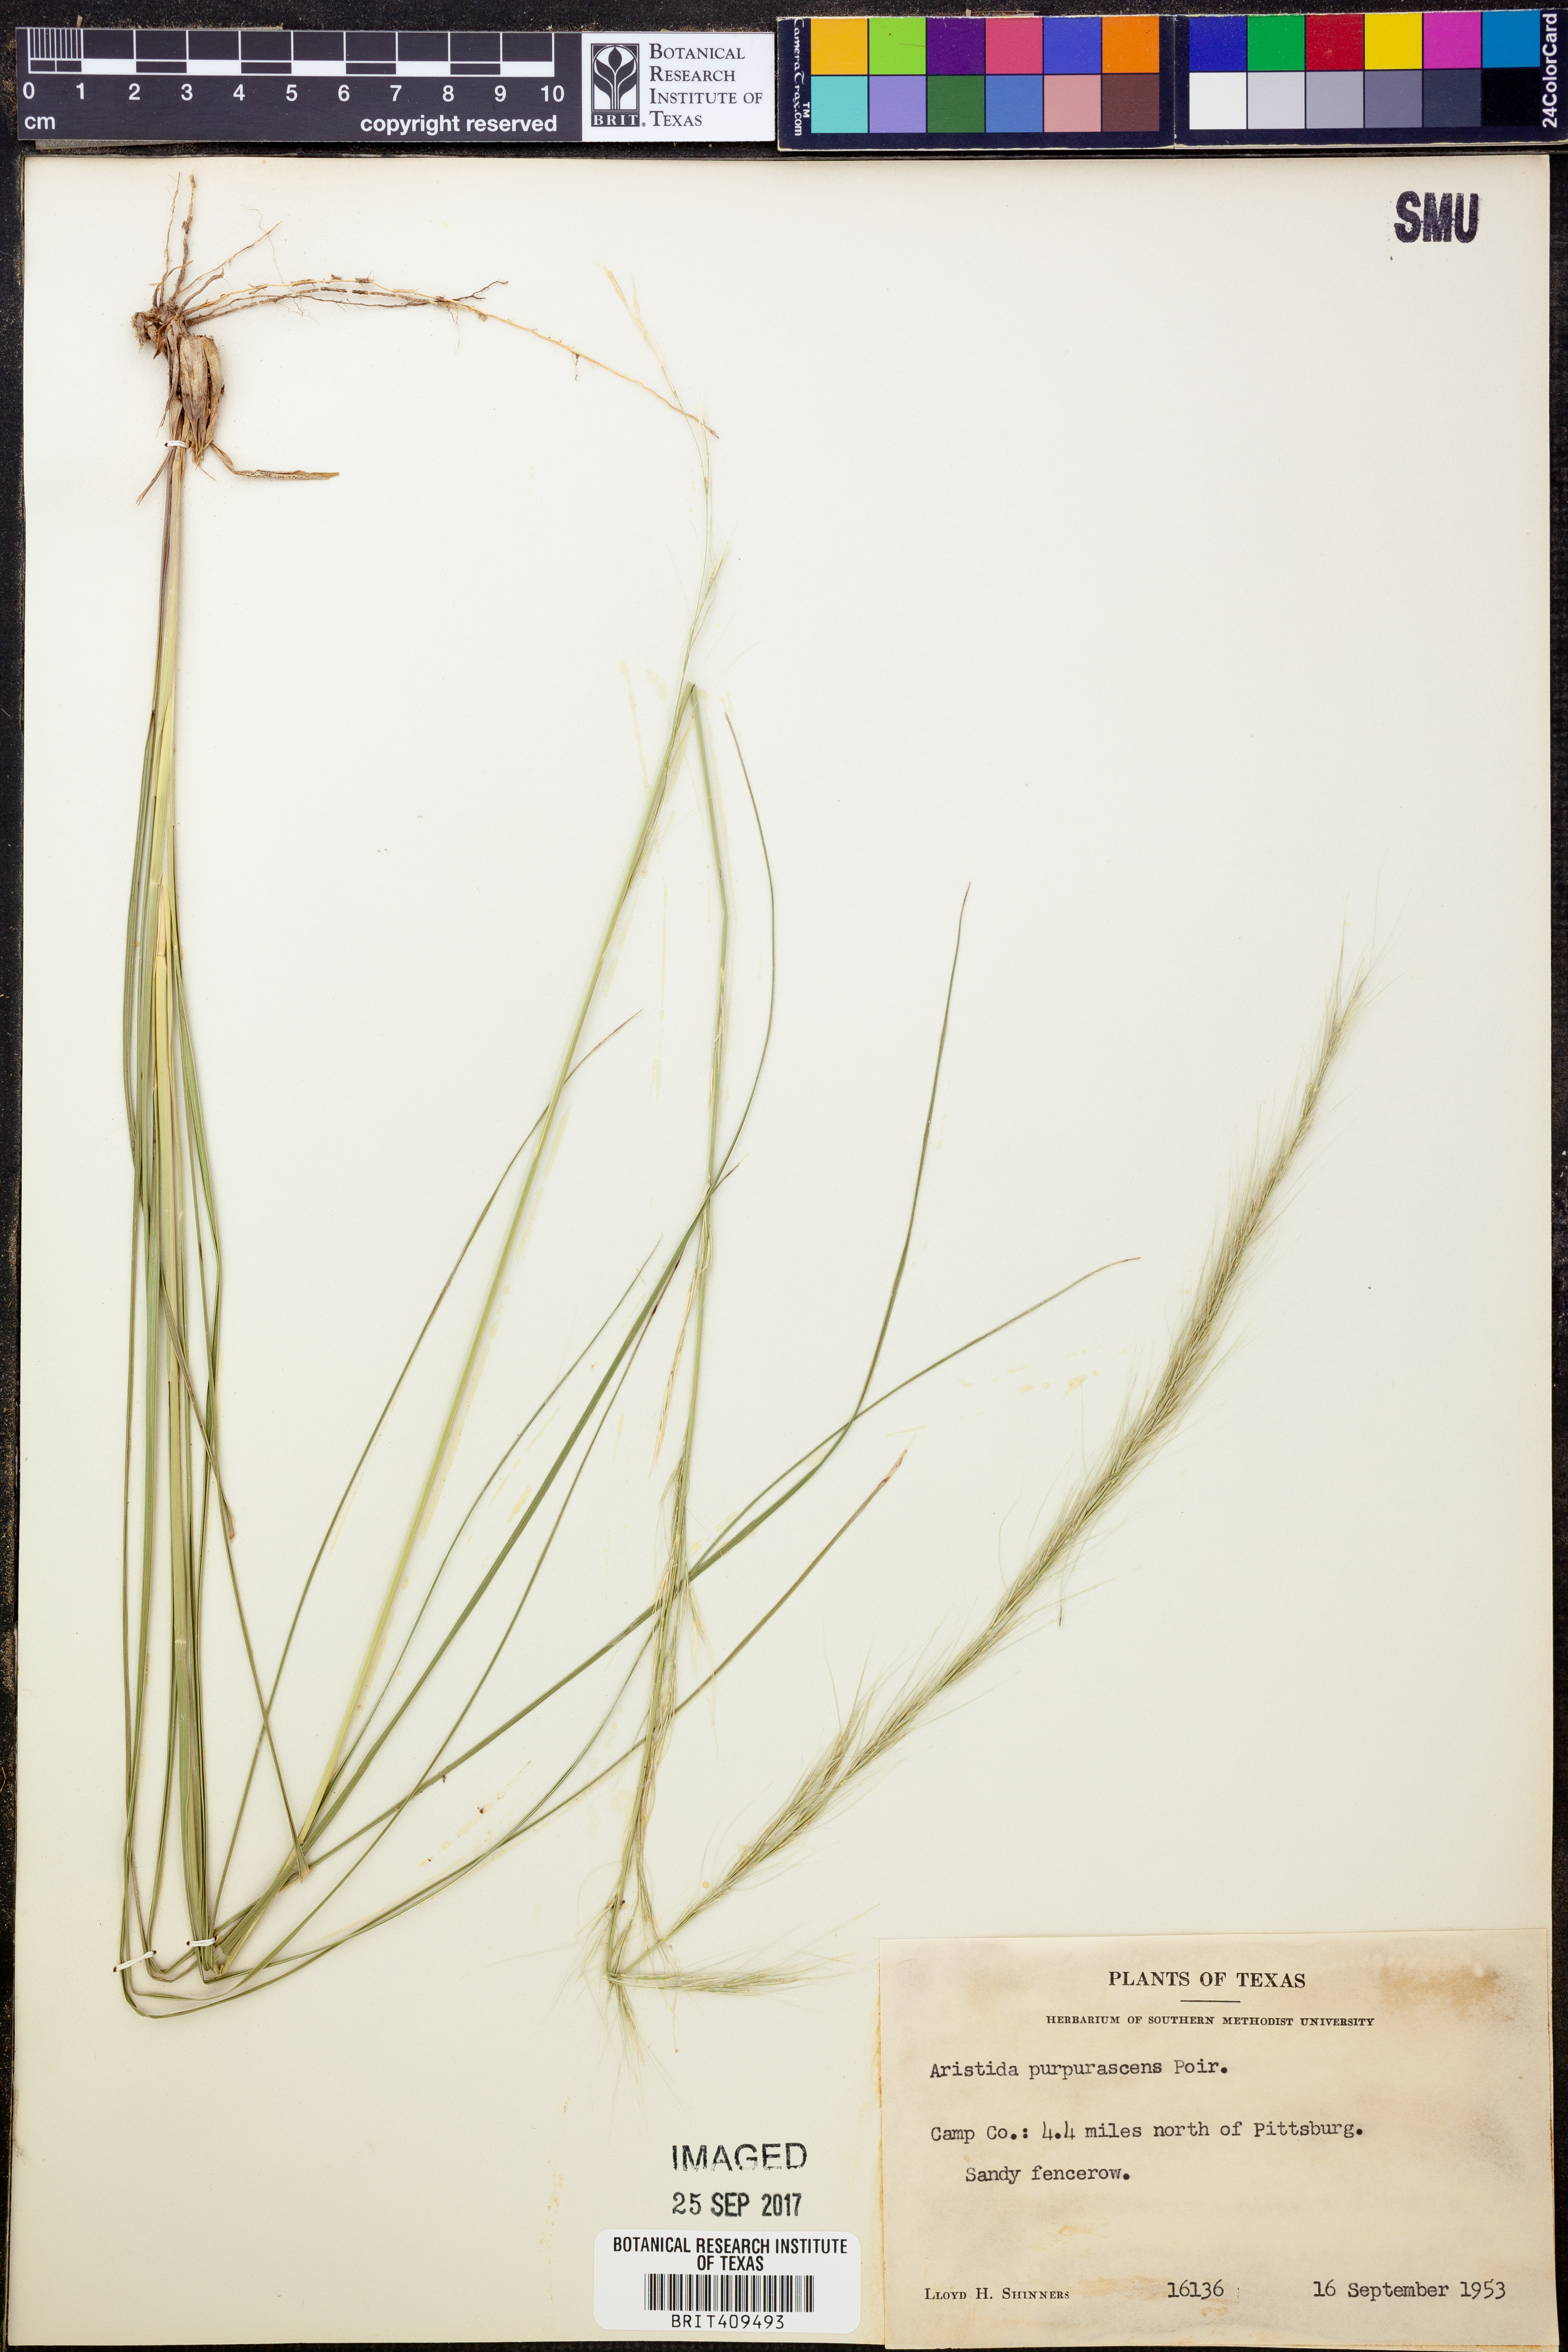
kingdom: Plantae
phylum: Tracheophyta
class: Liliopsida
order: Poales
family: Poaceae
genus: Aristida
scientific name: Aristida purpurascens
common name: Arrow-feather
